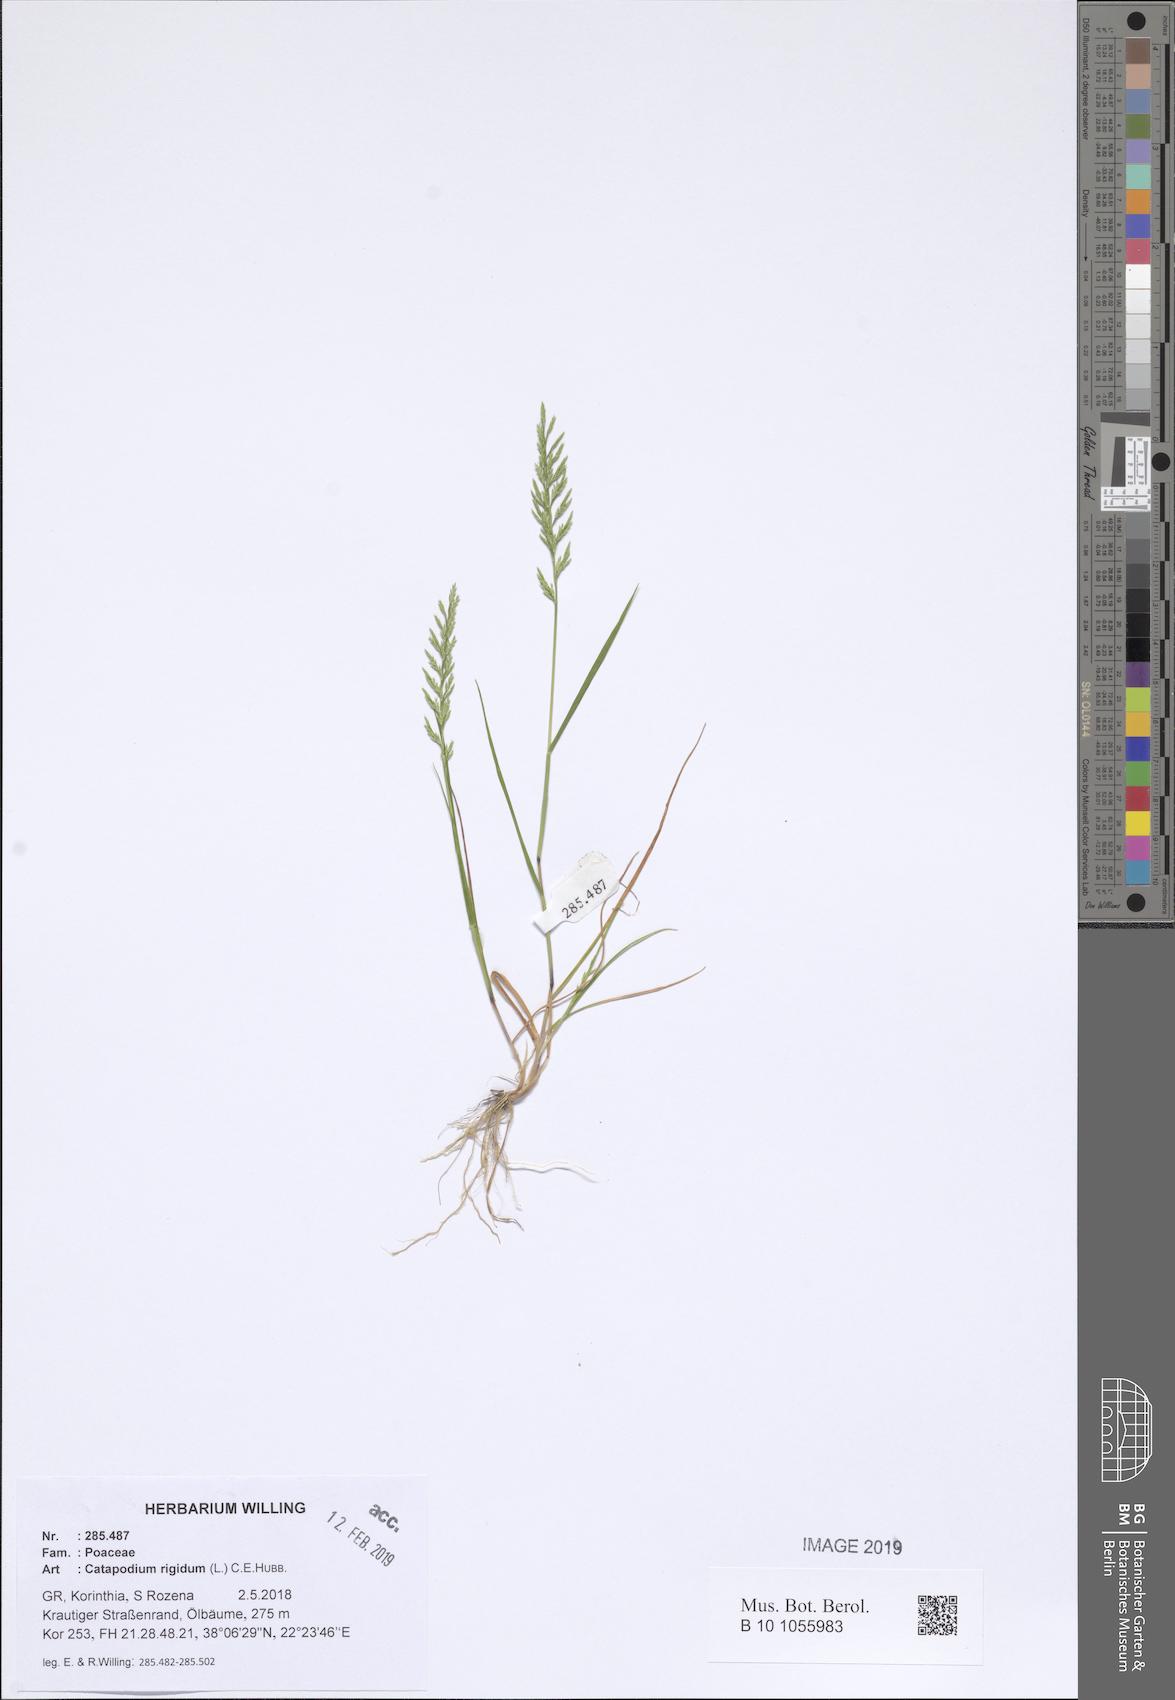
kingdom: Plantae
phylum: Tracheophyta
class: Liliopsida
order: Poales
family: Poaceae
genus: Catapodium
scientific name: Catapodium rigidum
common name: Fern-grass
